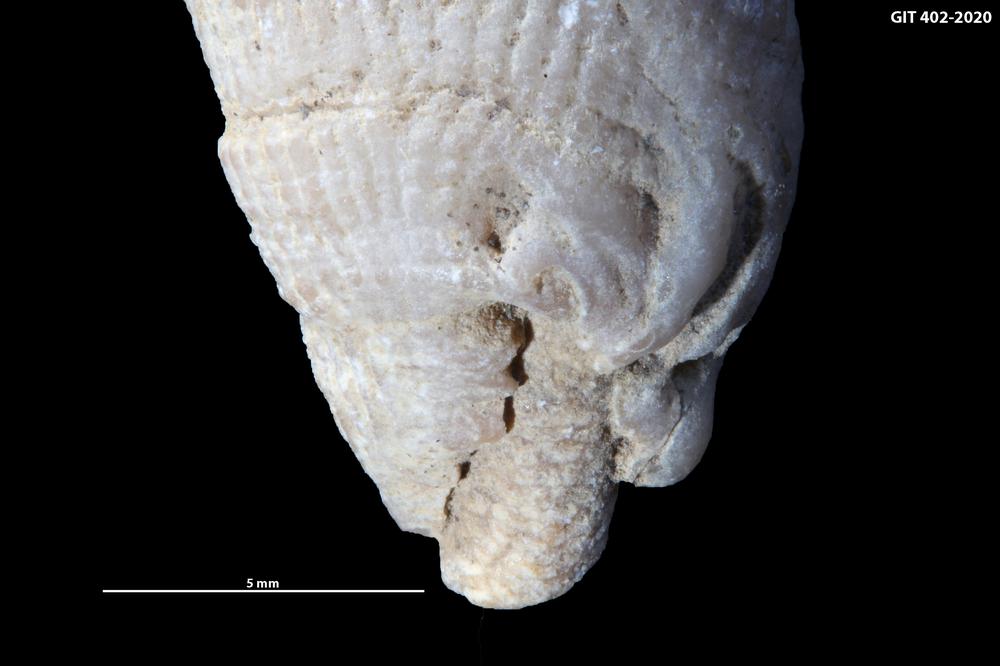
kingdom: Animalia
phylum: Bryozoa
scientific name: Bryozoa
